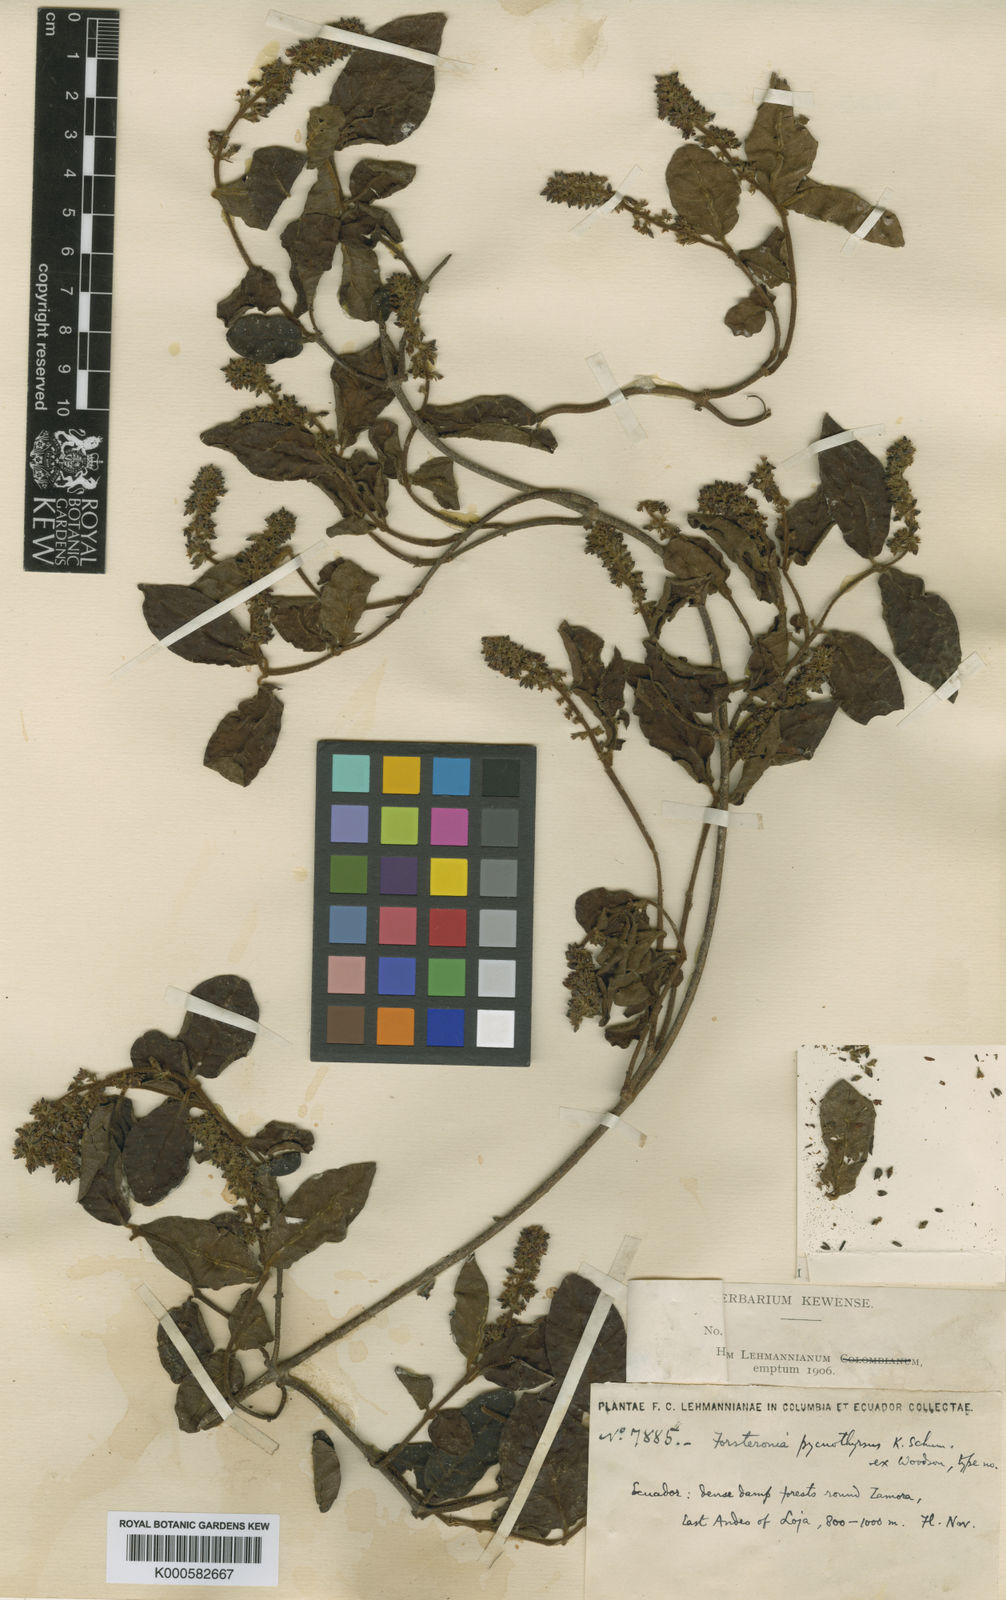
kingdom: Plantae
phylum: Tracheophyta
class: Magnoliopsida
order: Gentianales
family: Apocynaceae
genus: Forsteronia
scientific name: Forsteronia pycnothyrsus
